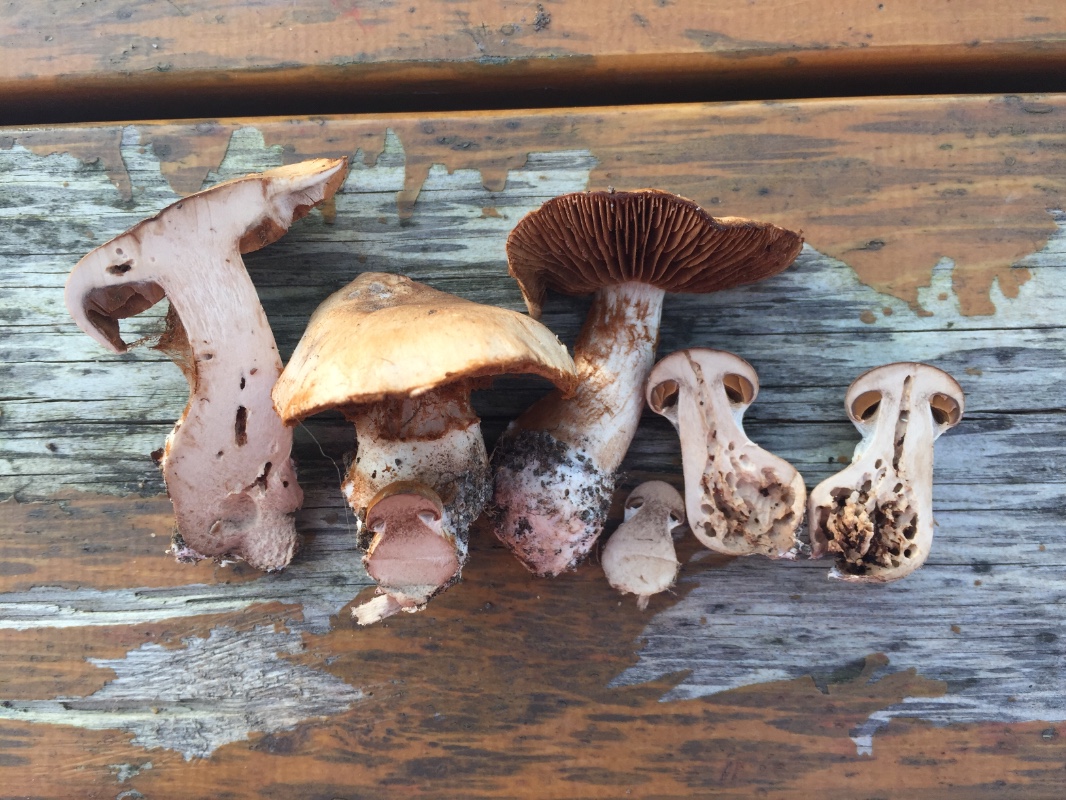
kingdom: Fungi
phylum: Basidiomycota
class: Agaricomycetes
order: Agaricales
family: Cortinariaceae
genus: Cortinarius
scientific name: Cortinarius sociatus
